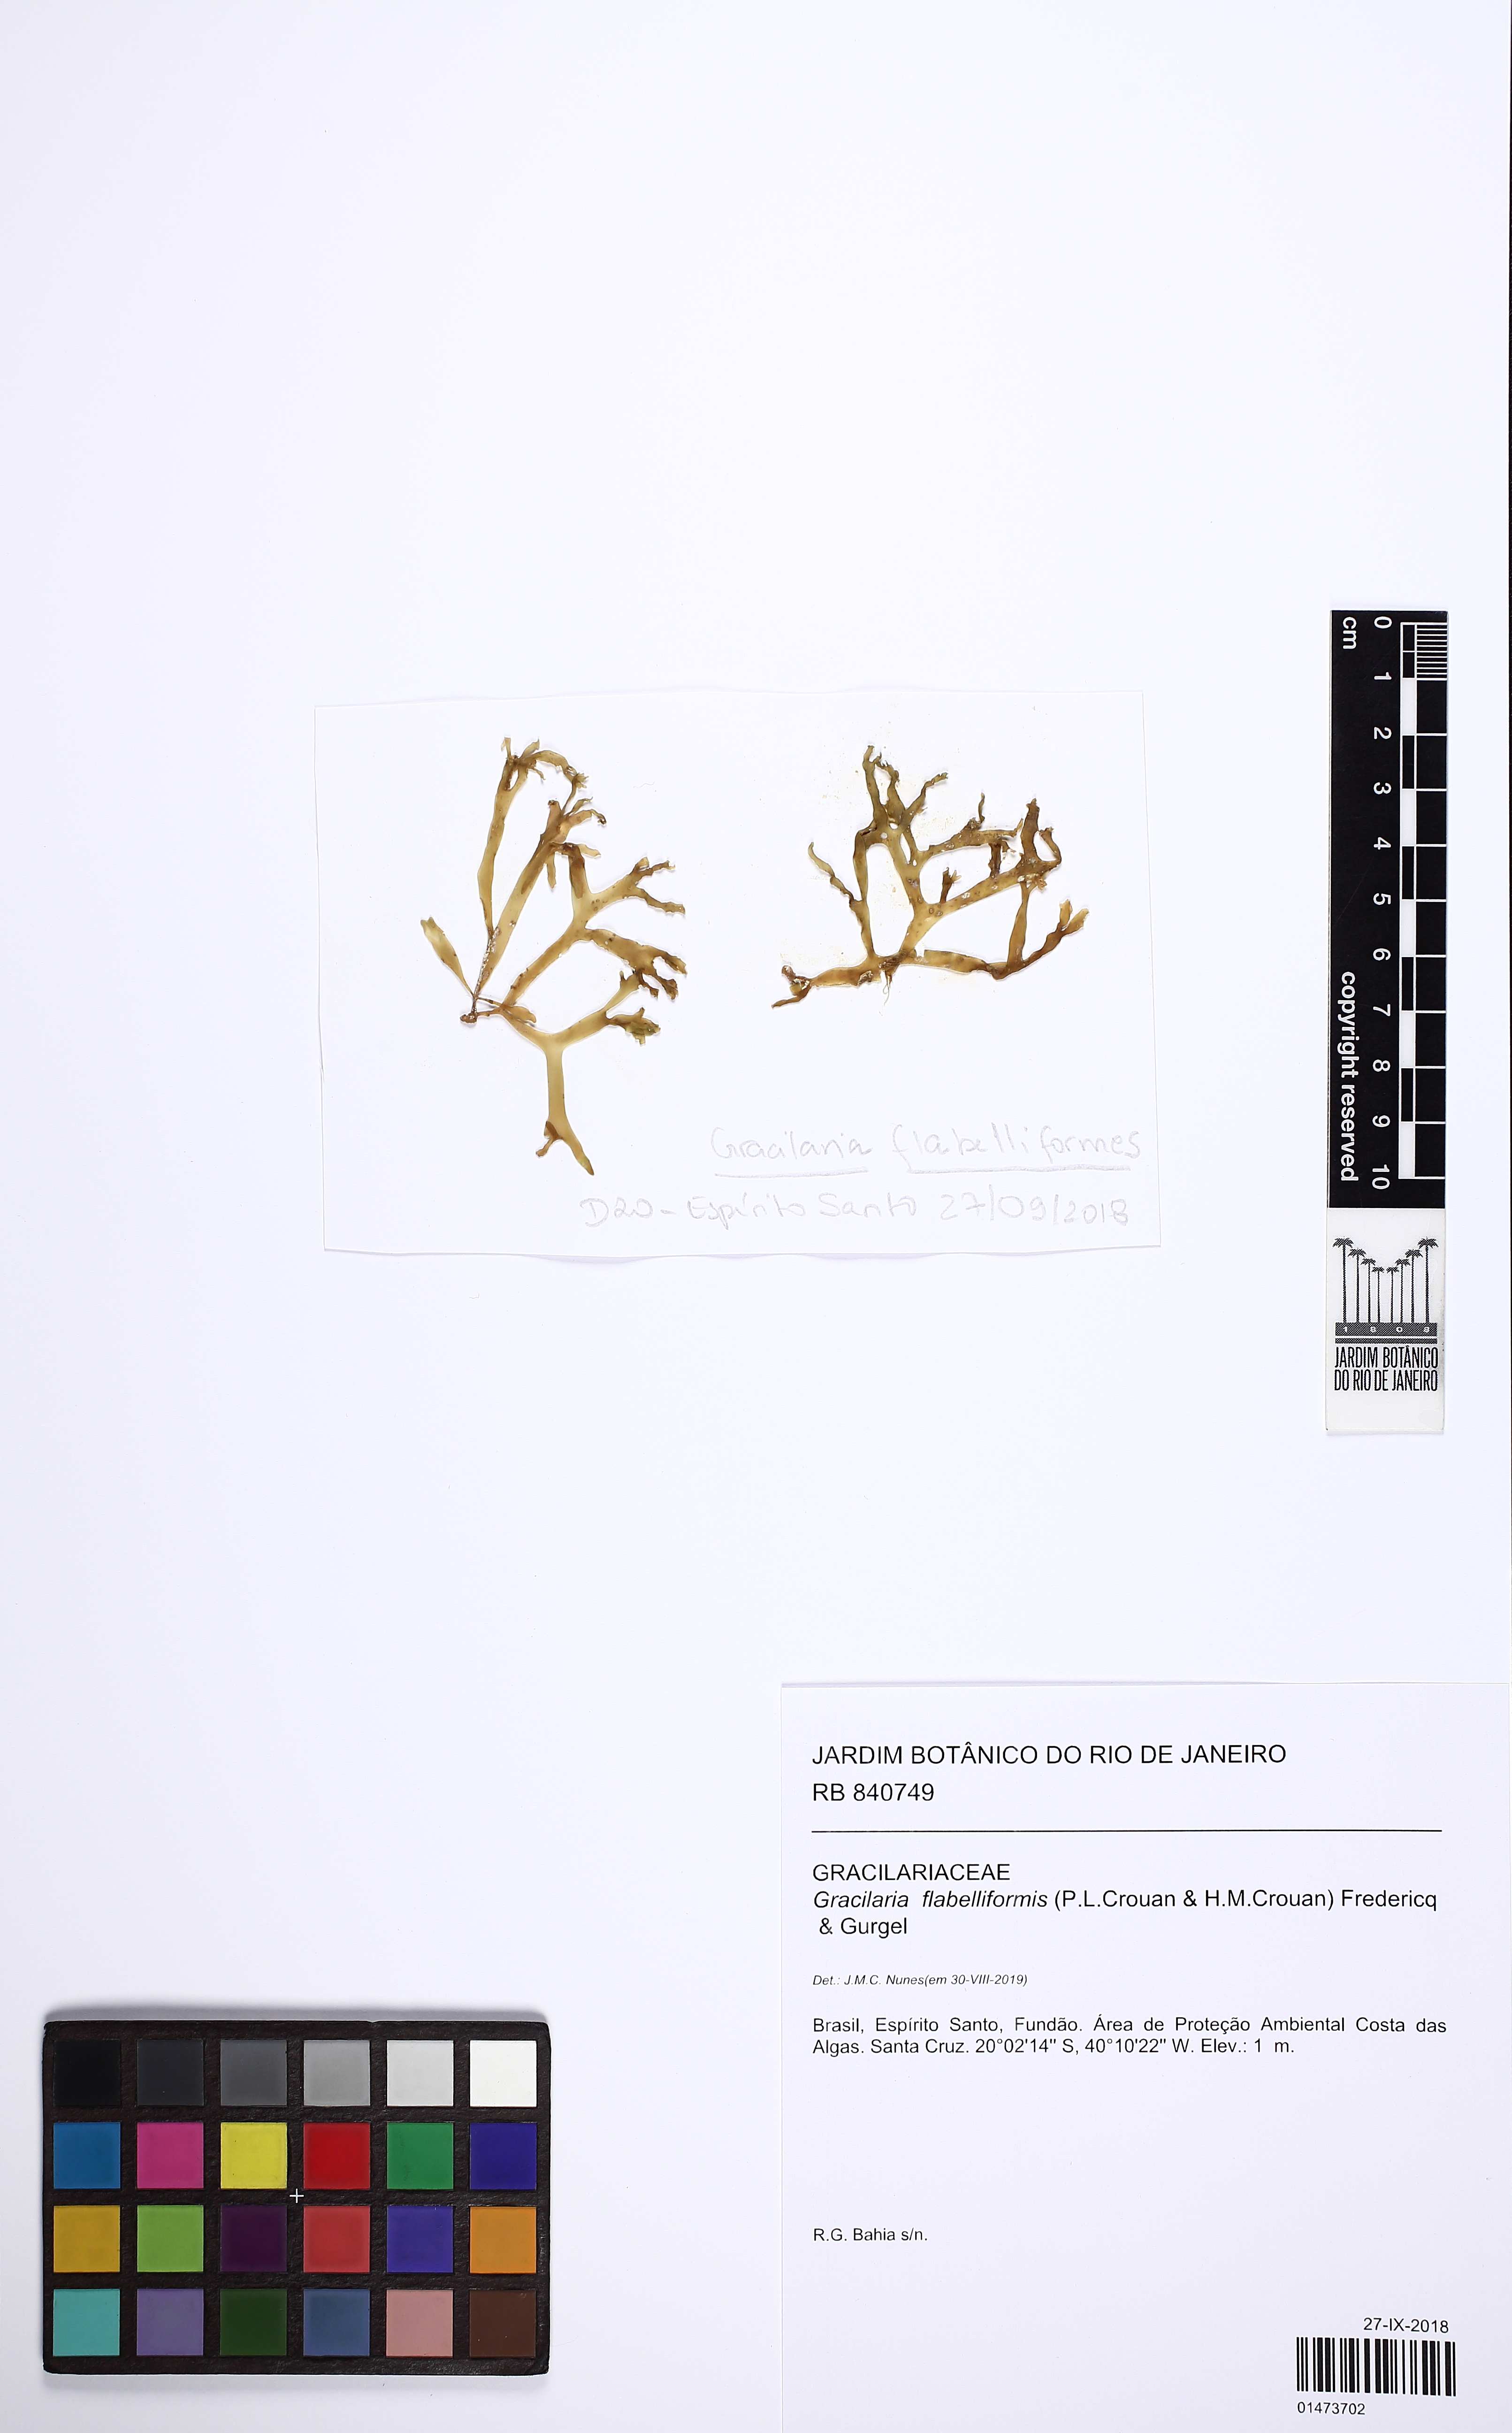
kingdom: Plantae
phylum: Rhodophyta
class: Florideophyceae
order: Gracilariales
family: Gracilariaceae
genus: Gracilaria
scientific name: Gracilaria flabelliformis
